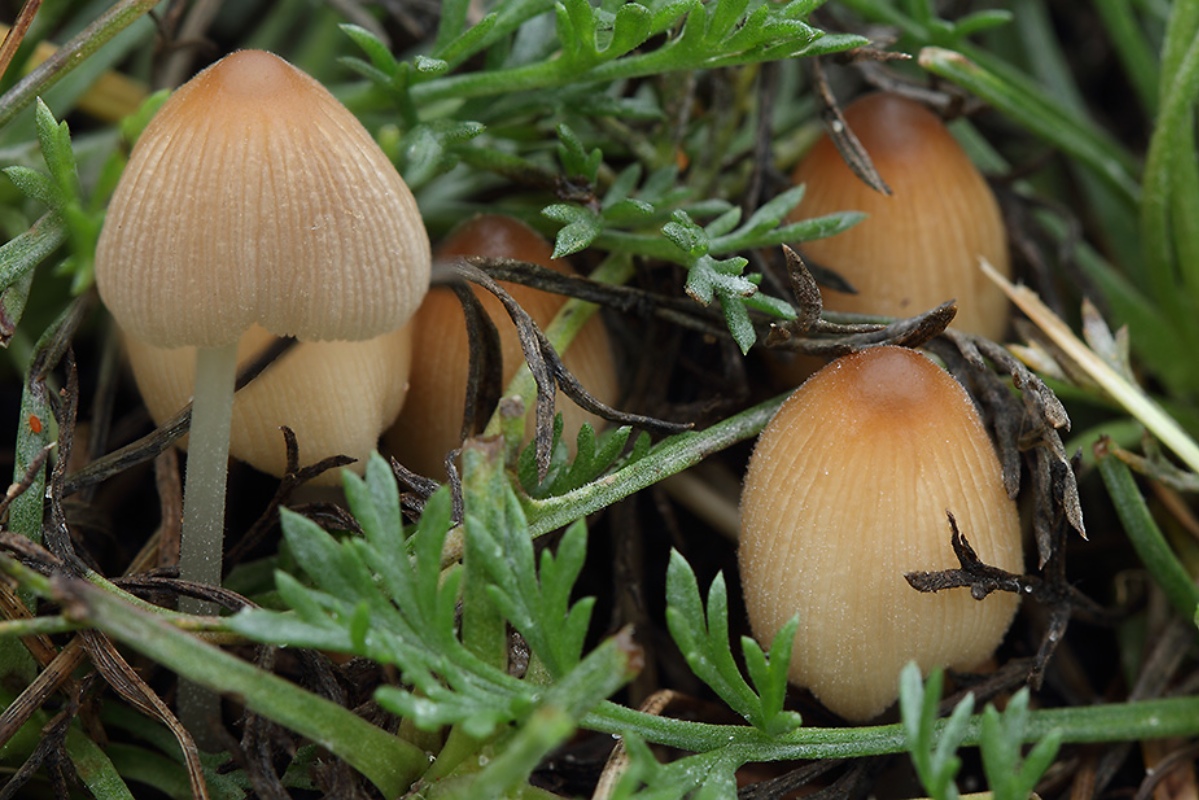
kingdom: Fungi
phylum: Basidiomycota
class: Agaricomycetes
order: Agaricales
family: Psathyrellaceae
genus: Tulosesus
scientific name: Tulosesus sclerocystidiosus
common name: brunhåret blækhat
